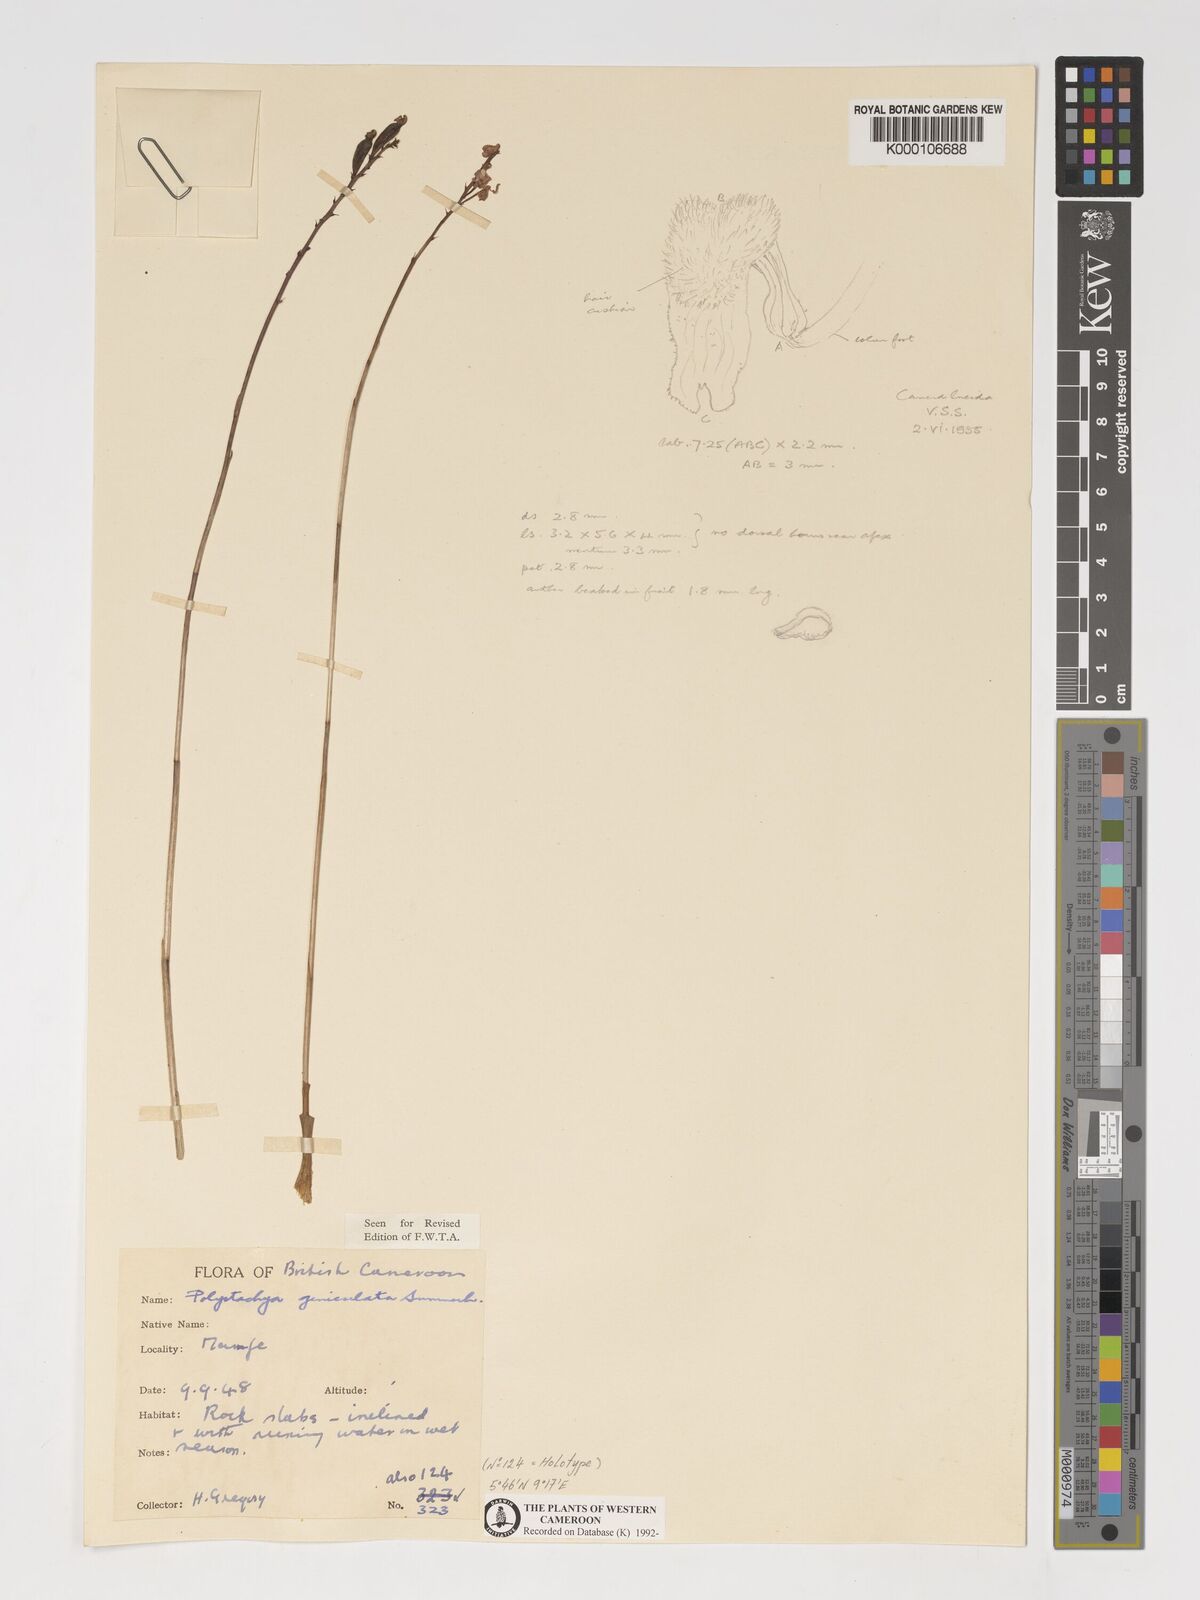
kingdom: Plantae
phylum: Tracheophyta
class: Liliopsida
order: Asparagales
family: Orchidaceae
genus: Polystachya
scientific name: Polystachya geniculata
